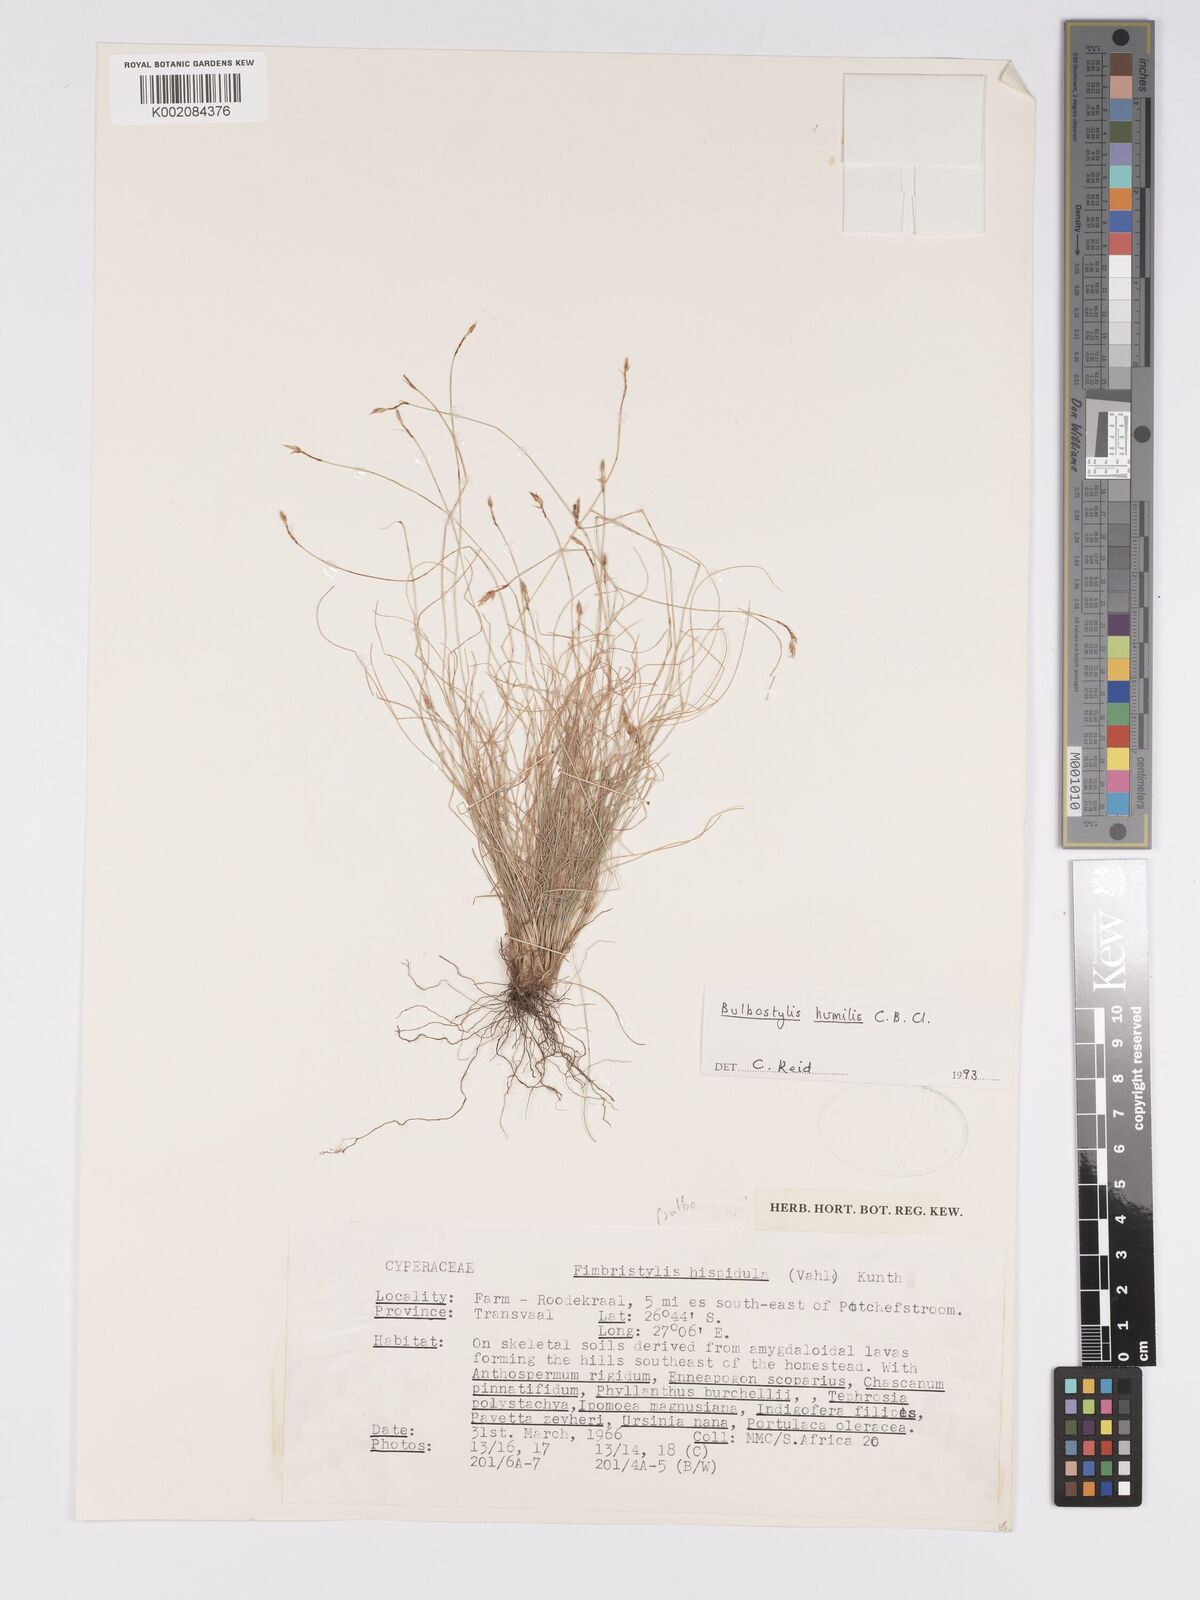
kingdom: Plantae
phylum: Tracheophyta
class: Liliopsida
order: Poales
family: Cyperaceae
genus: Bulbostylis
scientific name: Bulbostylis humilis
